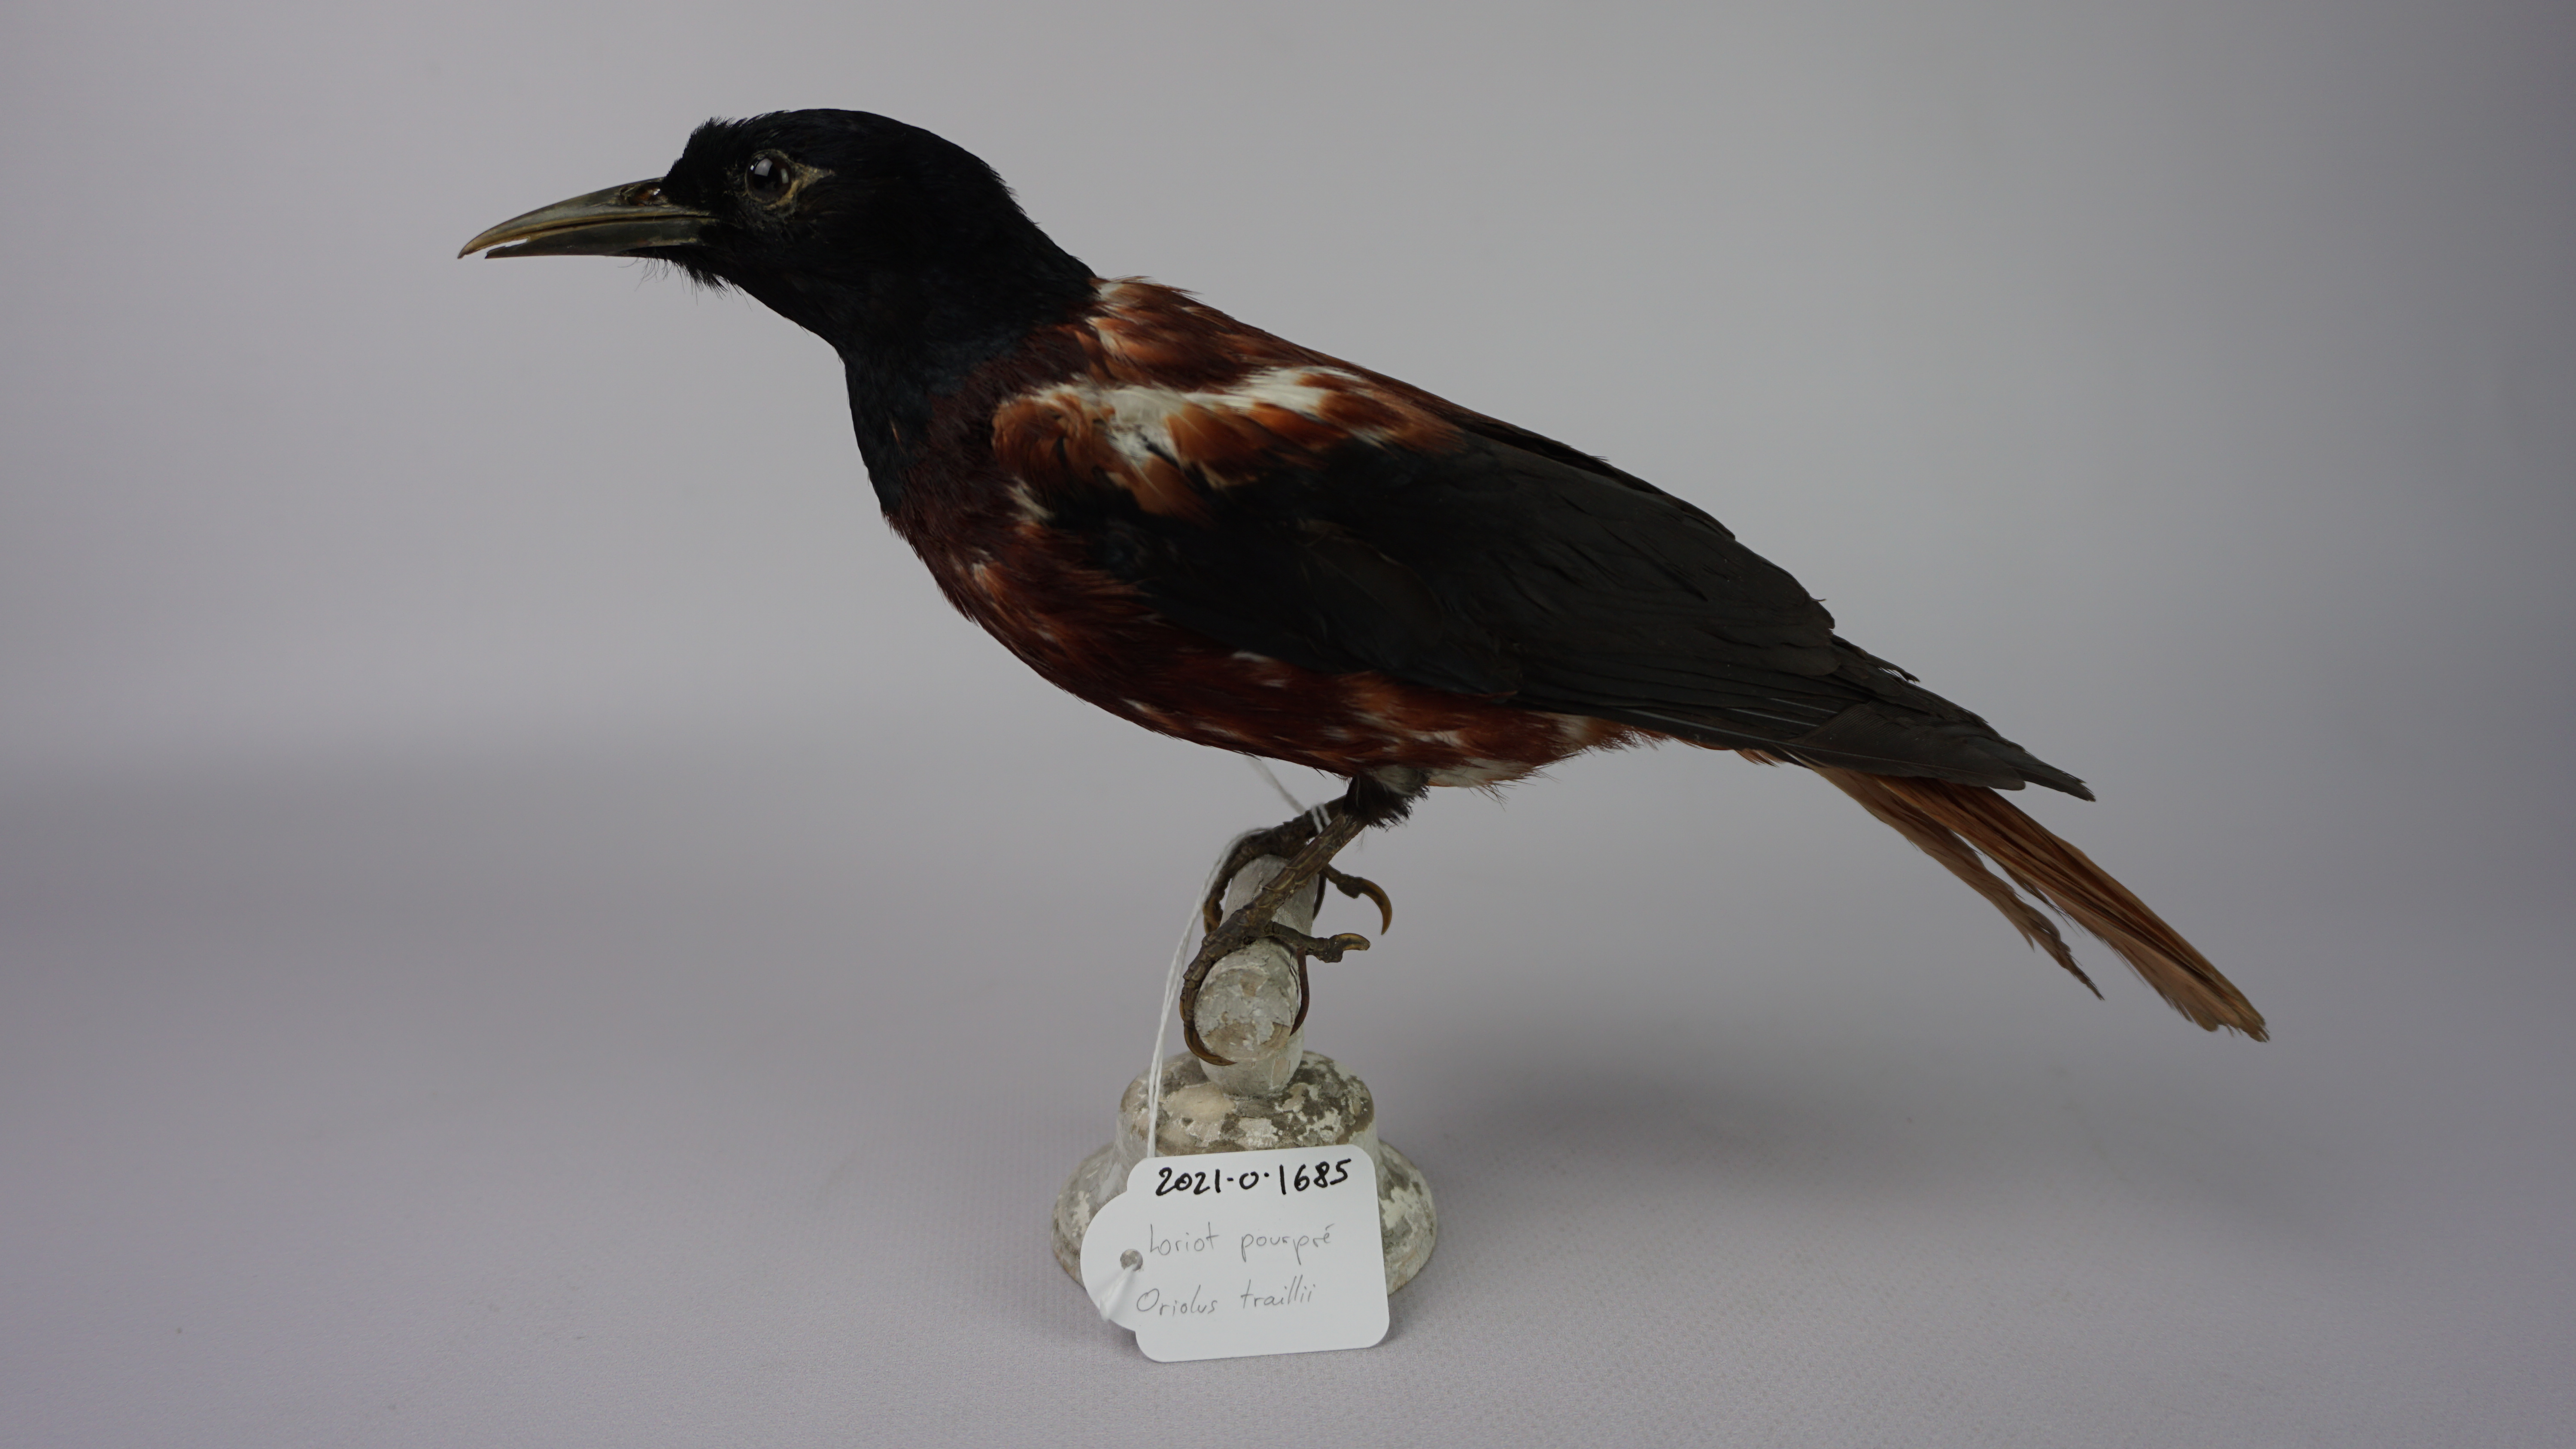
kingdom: Animalia
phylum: Chordata
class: Aves
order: Passeriformes
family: Oriolidae
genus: Oriolus
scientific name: Oriolus traillii
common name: Maroon oriole
